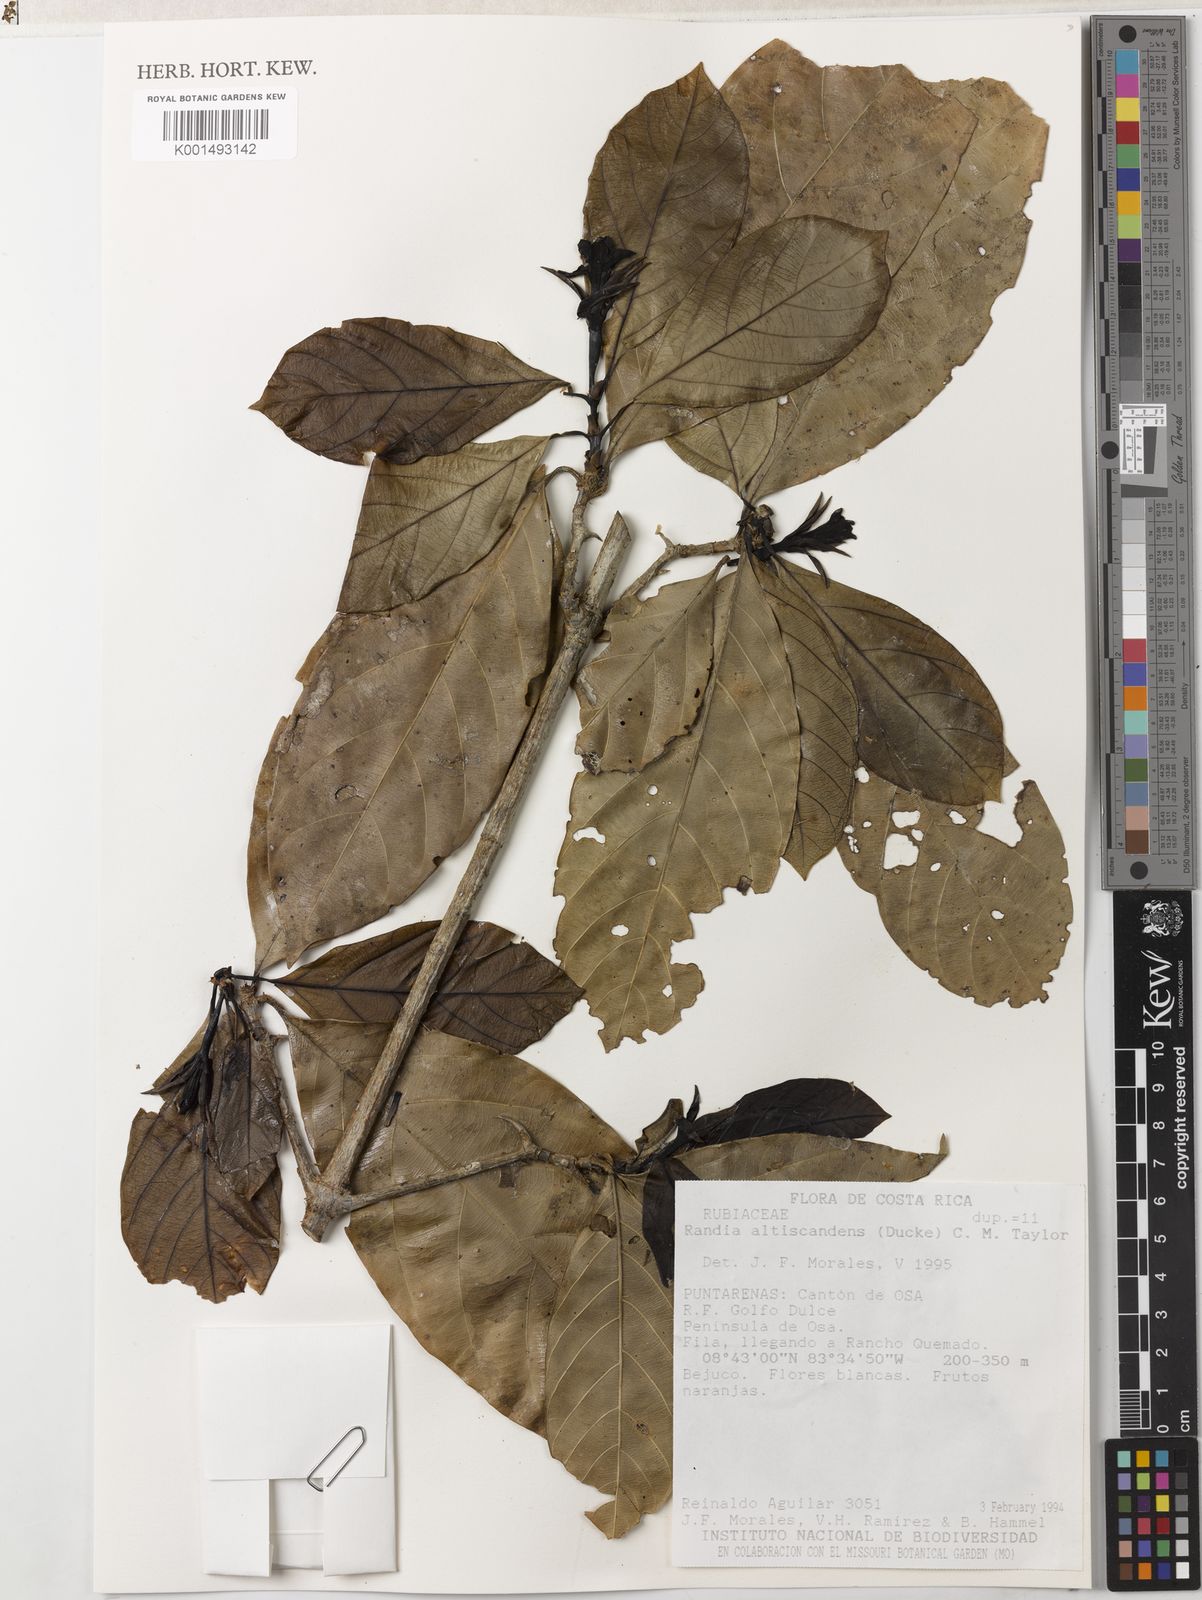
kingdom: Plantae
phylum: Tracheophyta
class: Magnoliopsida
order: Gentianales
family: Rubiaceae
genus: Randia
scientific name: Randia altiscandens
